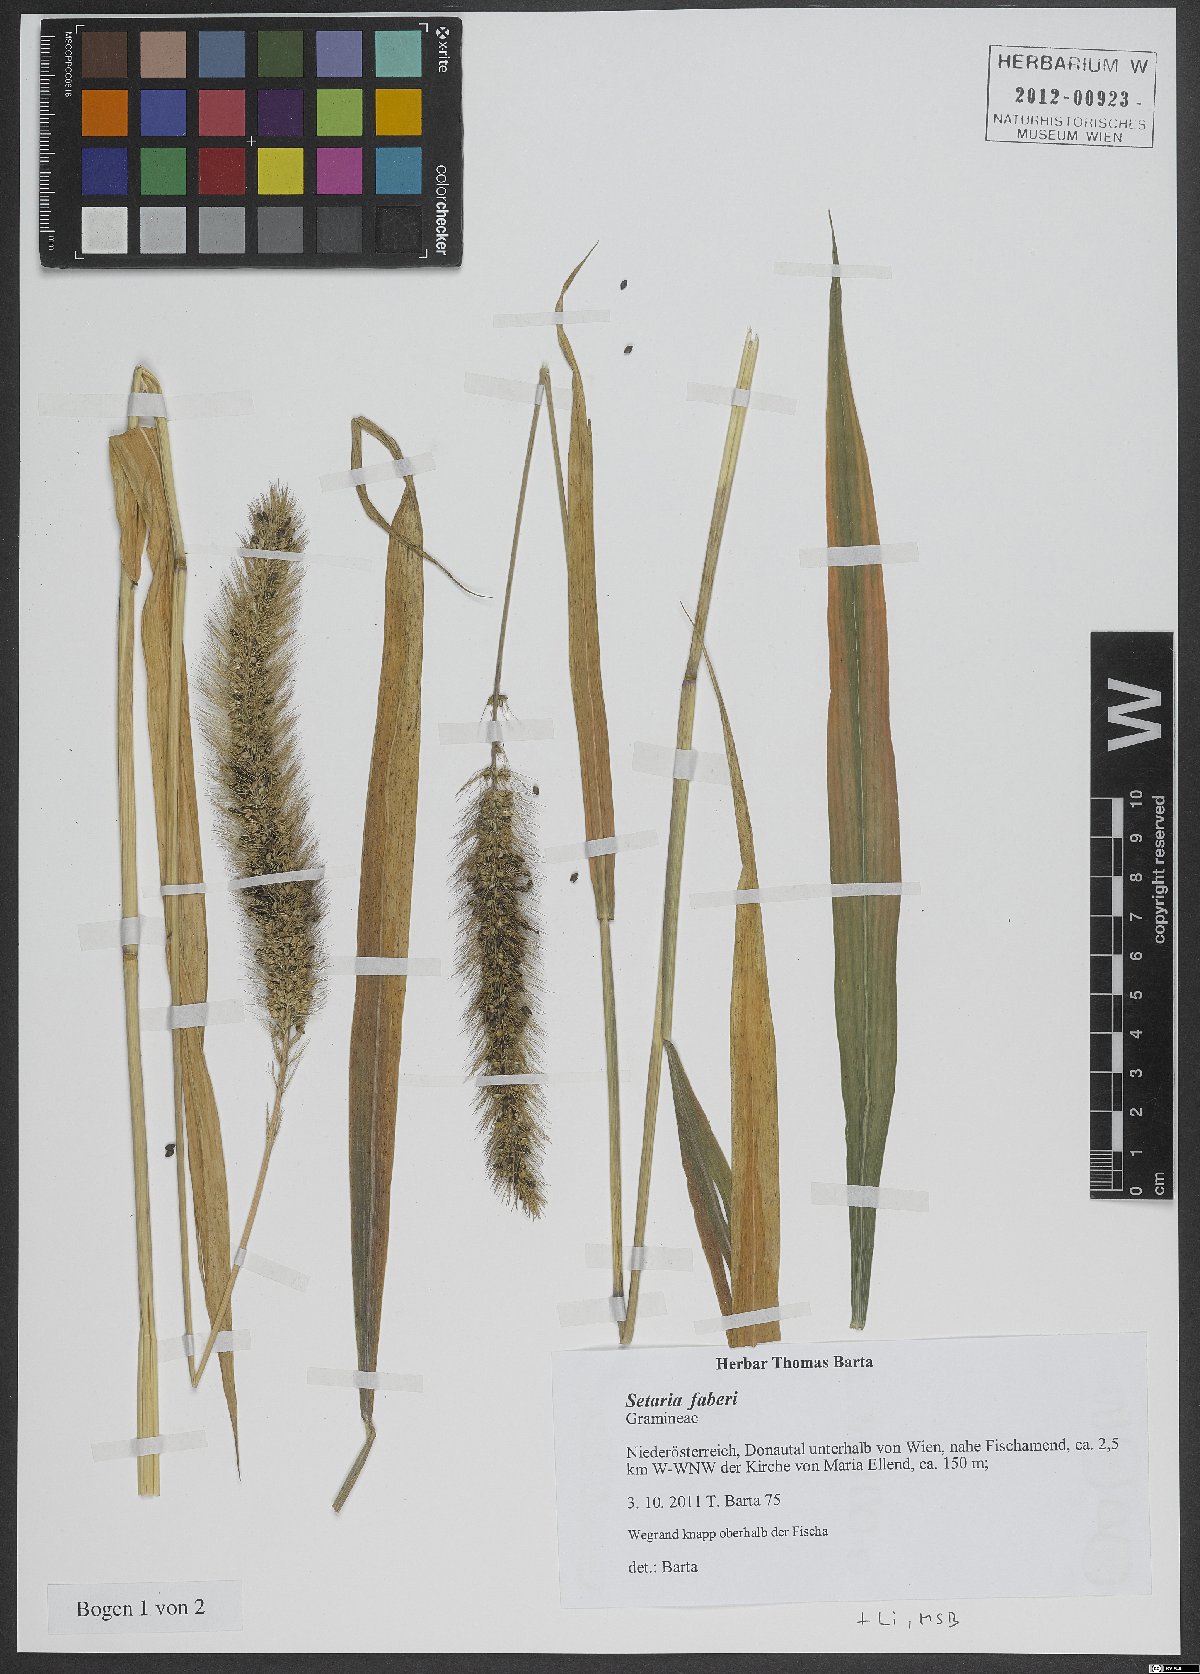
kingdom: Plantae
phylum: Tracheophyta
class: Liliopsida
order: Poales
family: Poaceae
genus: Setaria
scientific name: Setaria faberi
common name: Nodding bristle-grass
